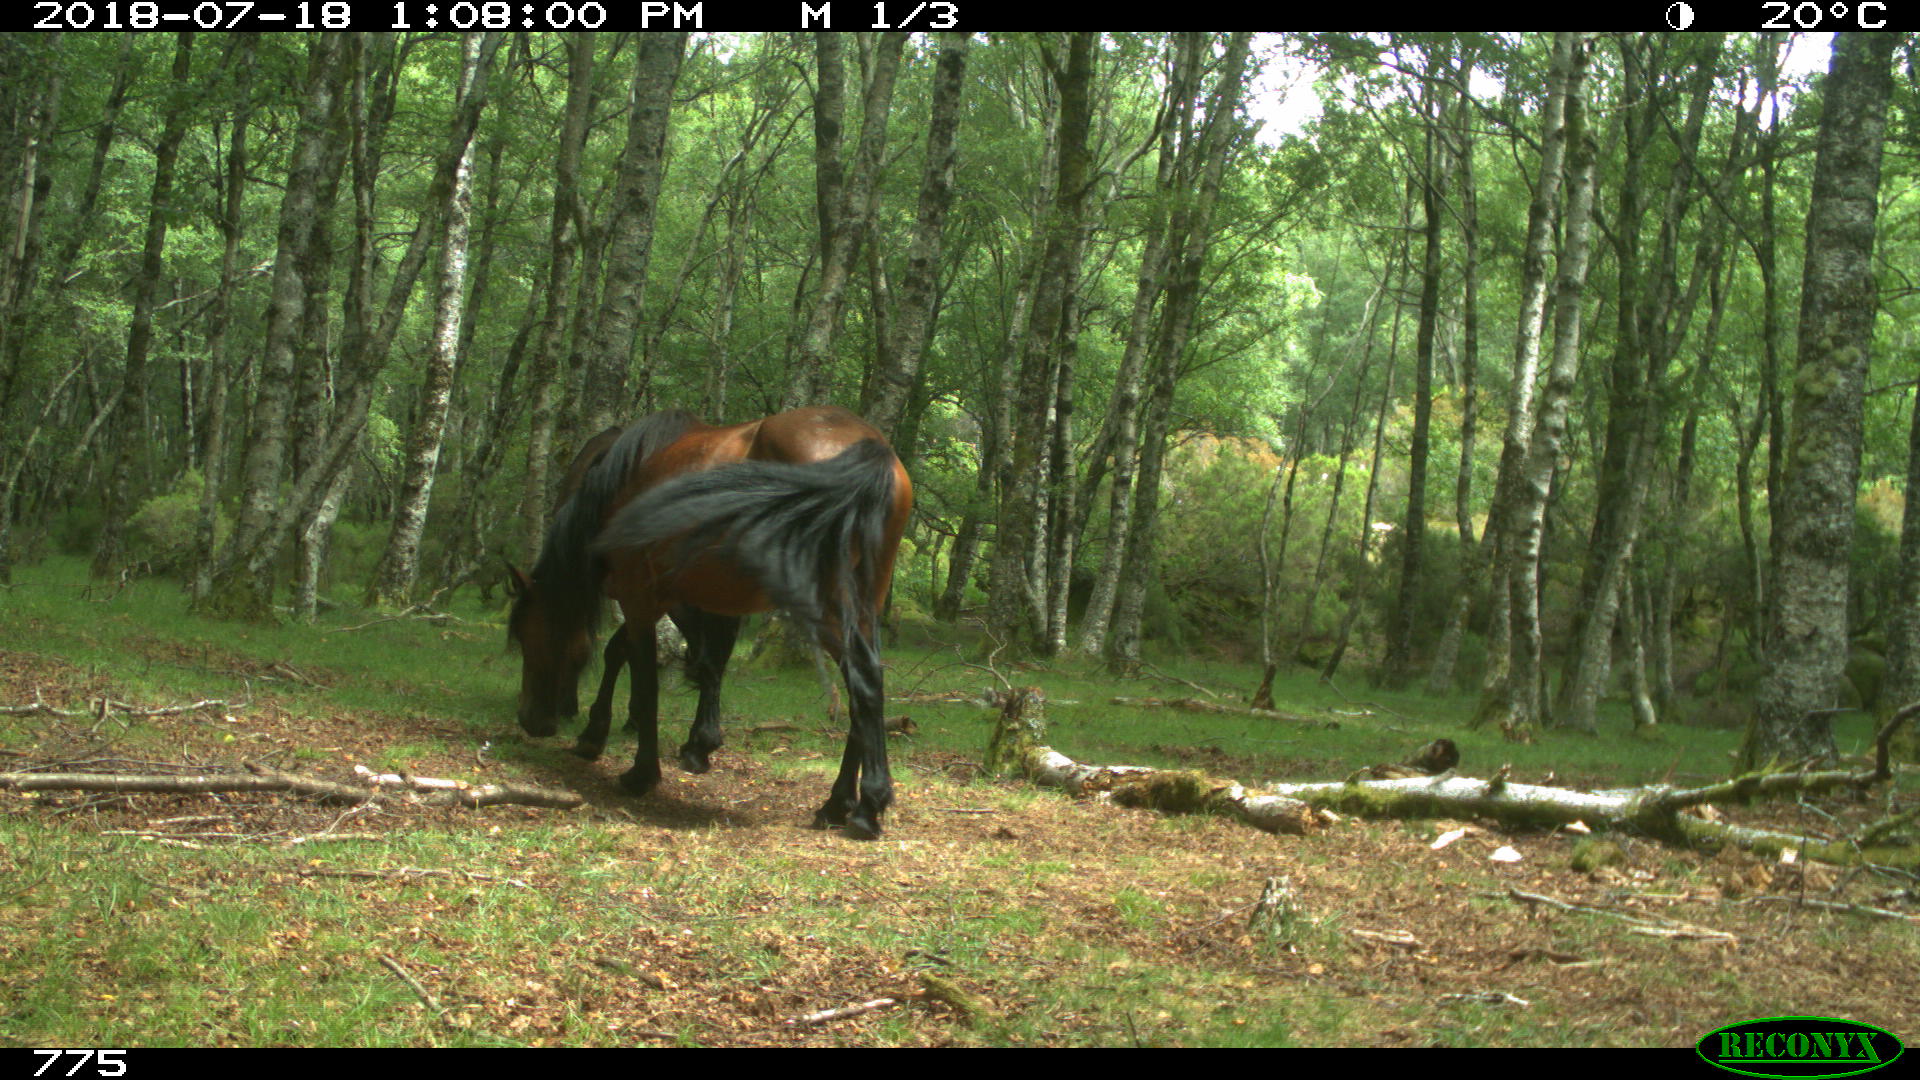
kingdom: Animalia
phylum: Chordata
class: Mammalia
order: Perissodactyla
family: Equidae
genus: Equus
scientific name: Equus caballus
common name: Horse
